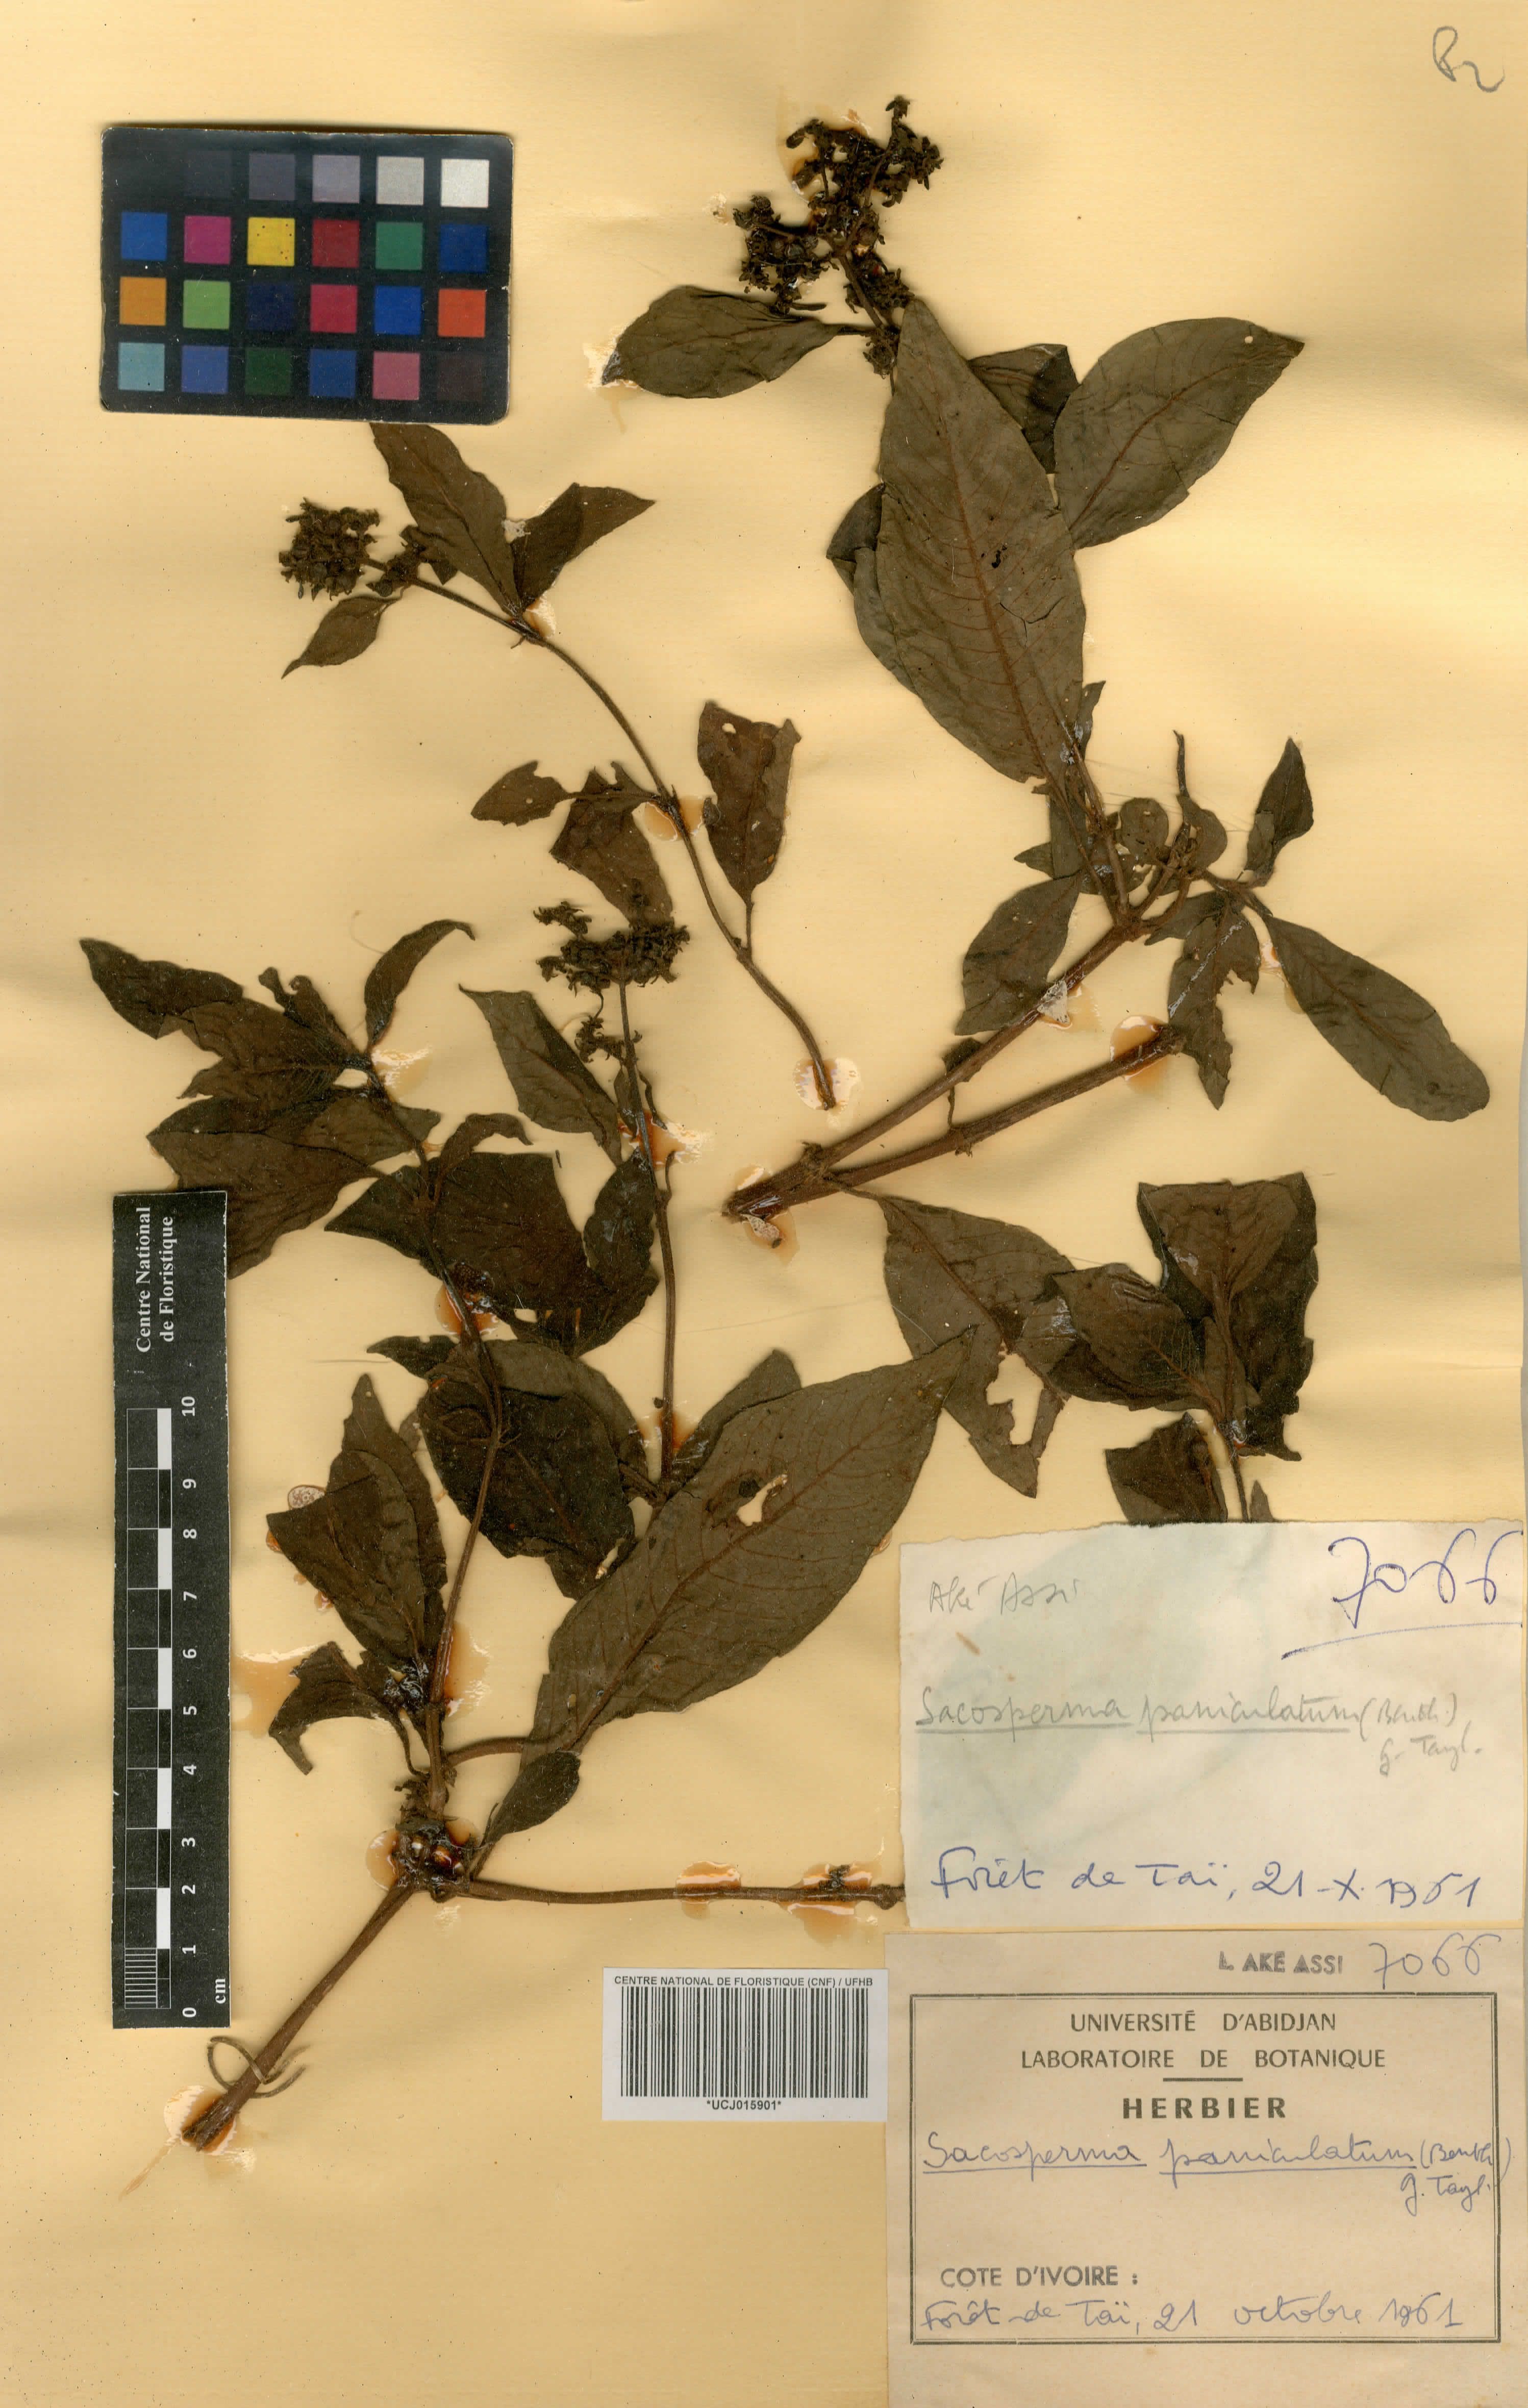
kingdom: Plantae
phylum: Tracheophyta
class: Magnoliopsida
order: Gentianales
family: Rubiaceae
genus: Sacosperma
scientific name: Sacosperma paniculatum
